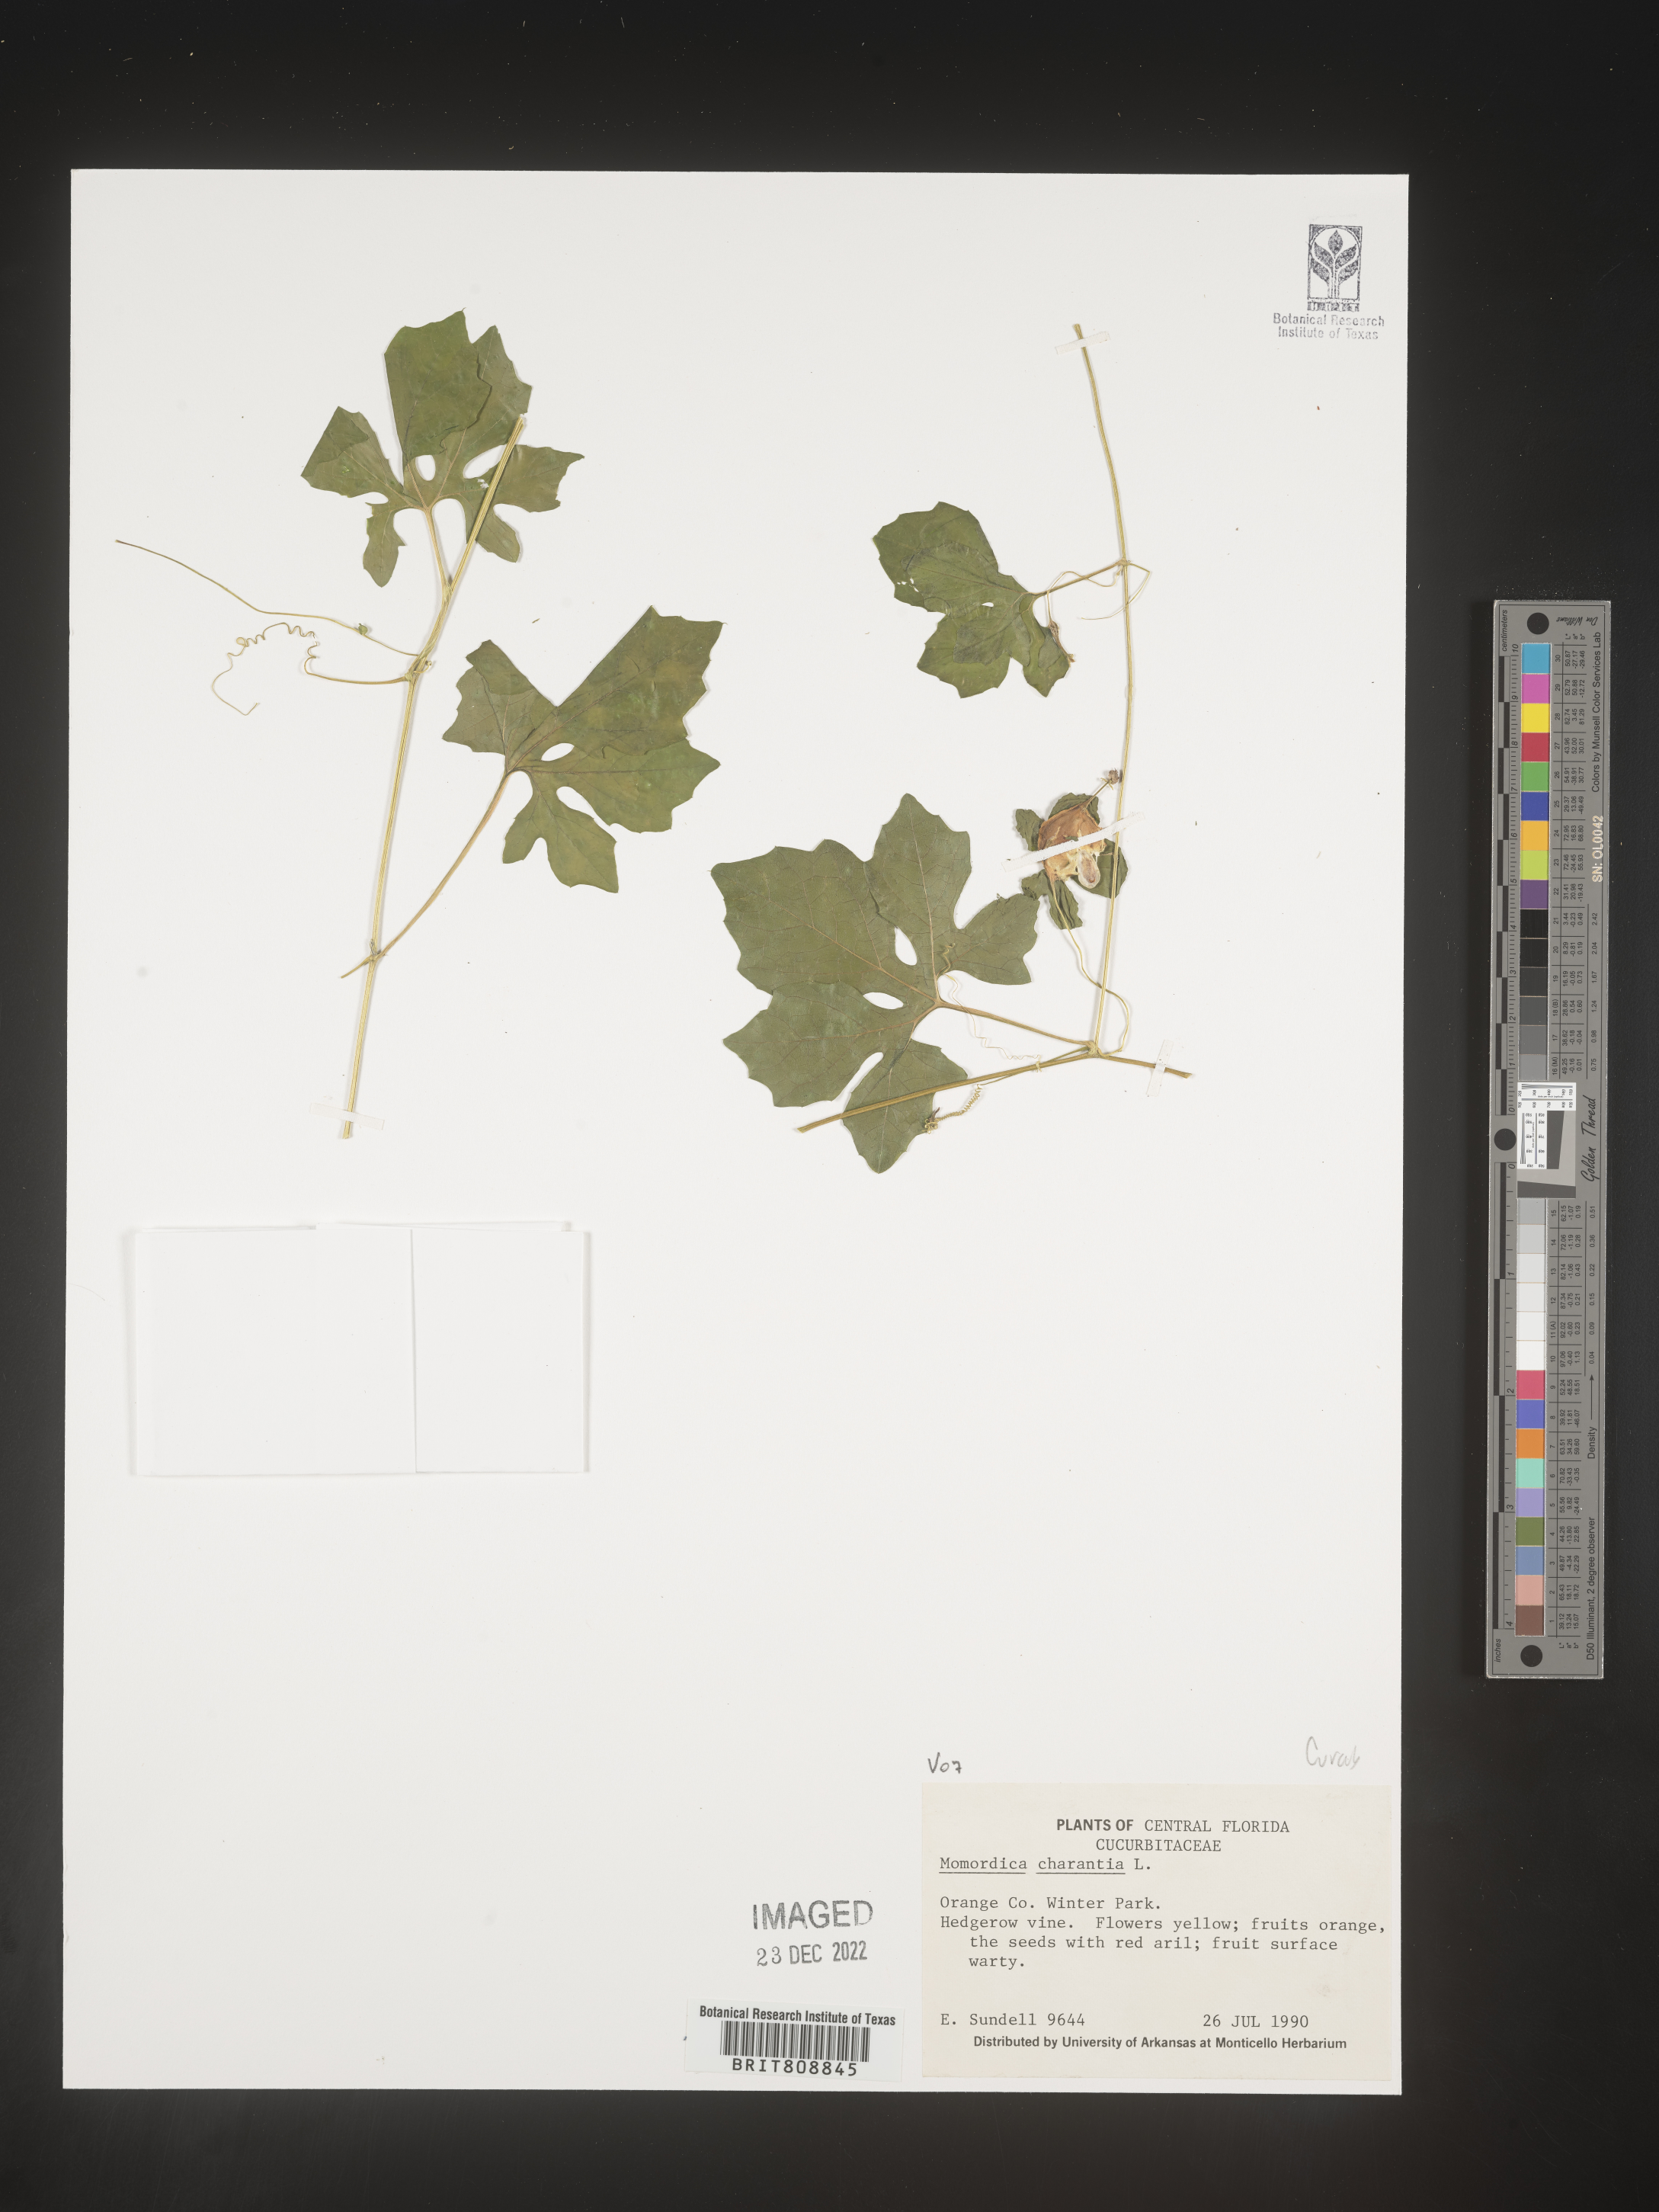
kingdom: Plantae
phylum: Tracheophyta
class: Magnoliopsida
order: Cucurbitales
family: Cucurbitaceae
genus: Momordica
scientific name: Momordica
